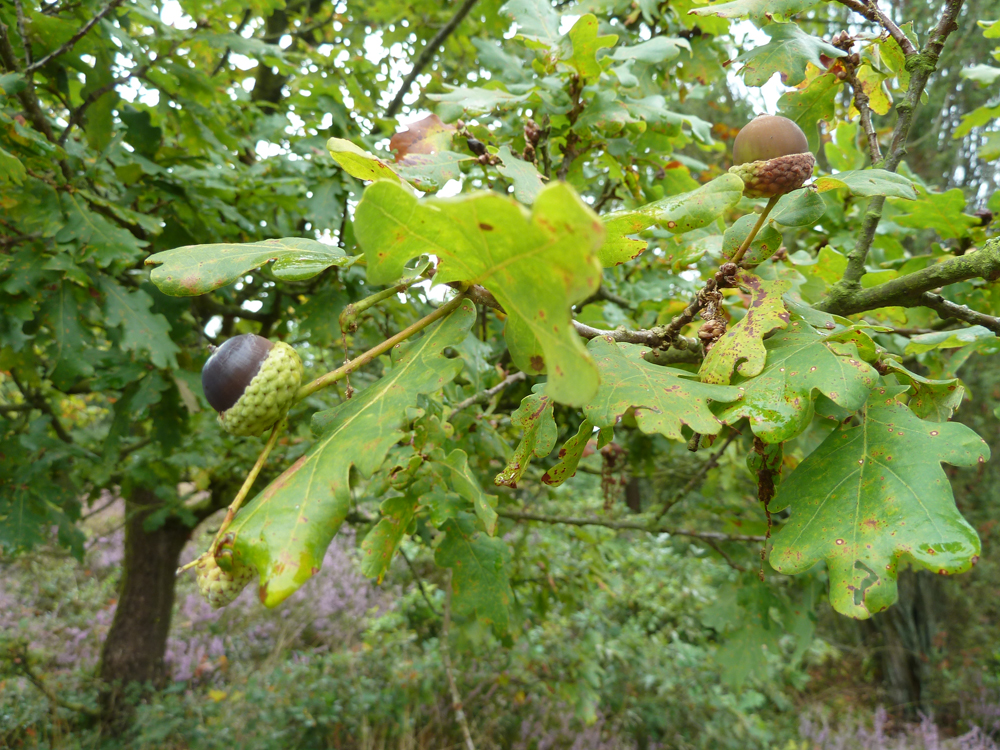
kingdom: Plantae
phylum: Tracheophyta
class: Magnoliopsida
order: Fagales
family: Fagaceae
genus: Quercus
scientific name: Quercus robur
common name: Pedunculate oak
